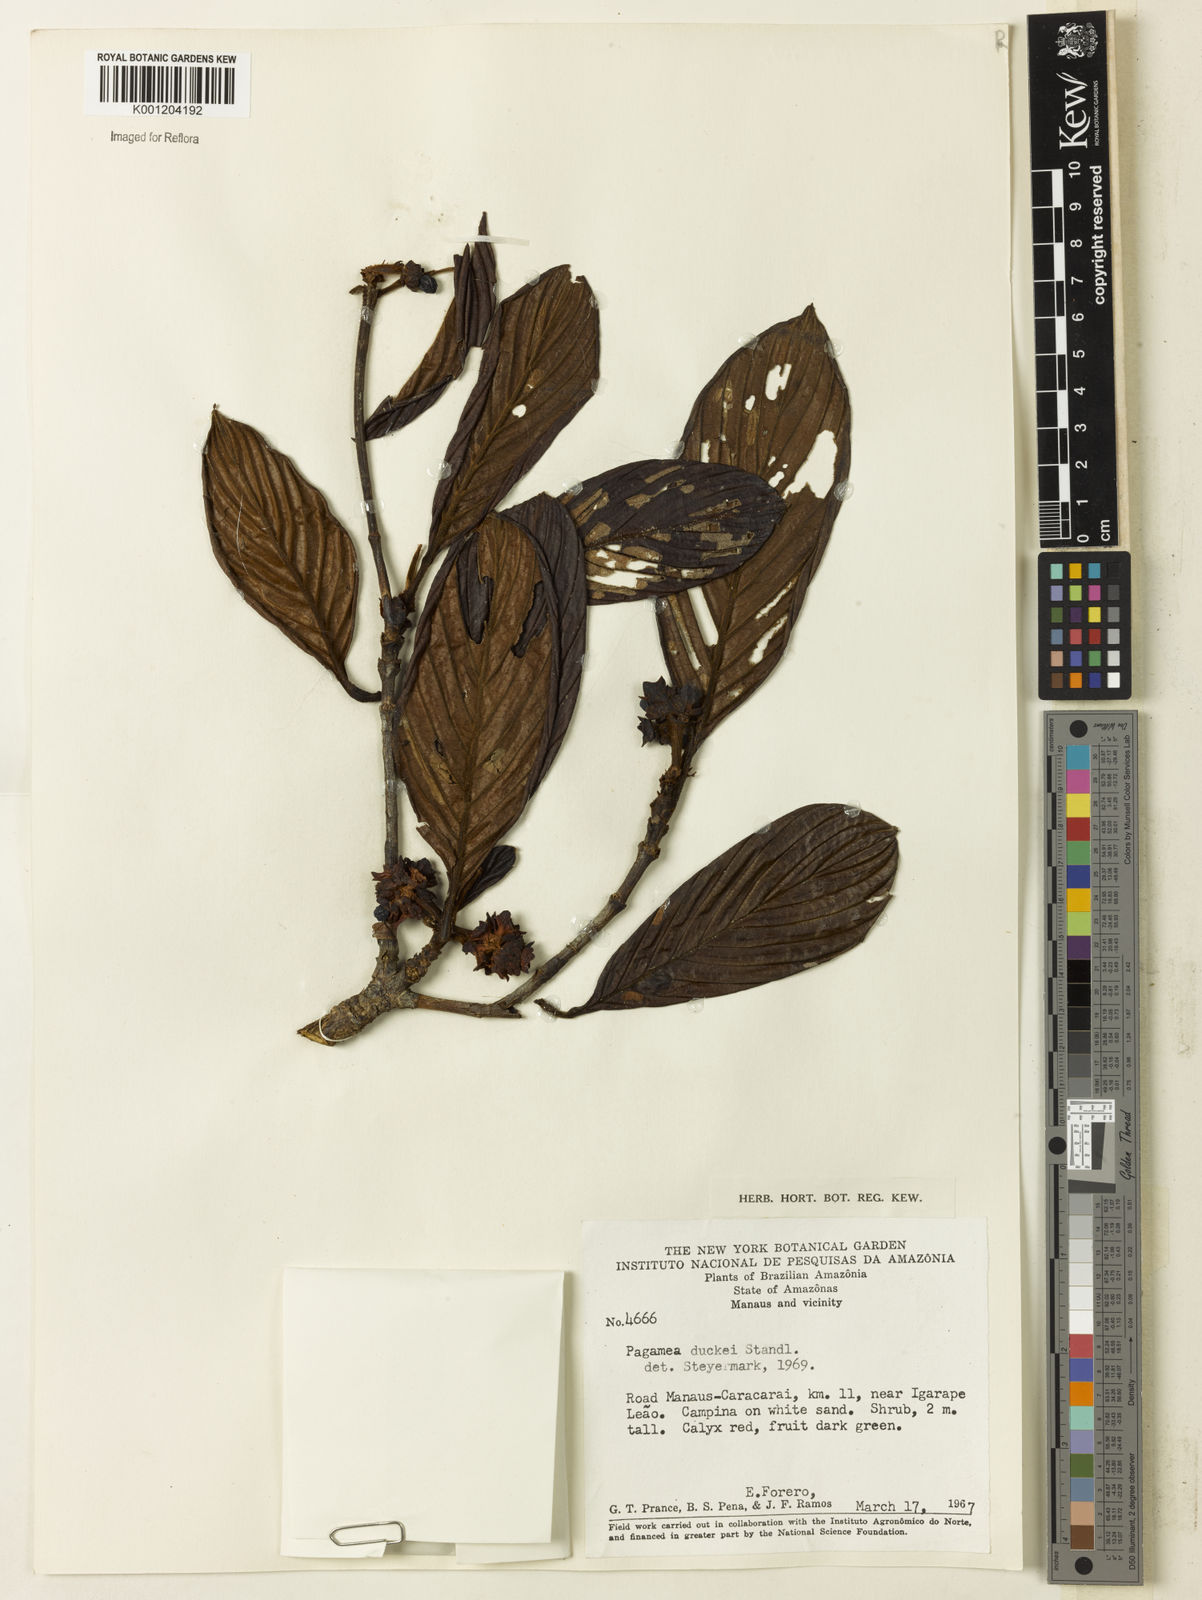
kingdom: Plantae
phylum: Tracheophyta
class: Magnoliopsida
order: Gentianales
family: Rubiaceae
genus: Pagamea
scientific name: Pagamea duckei
